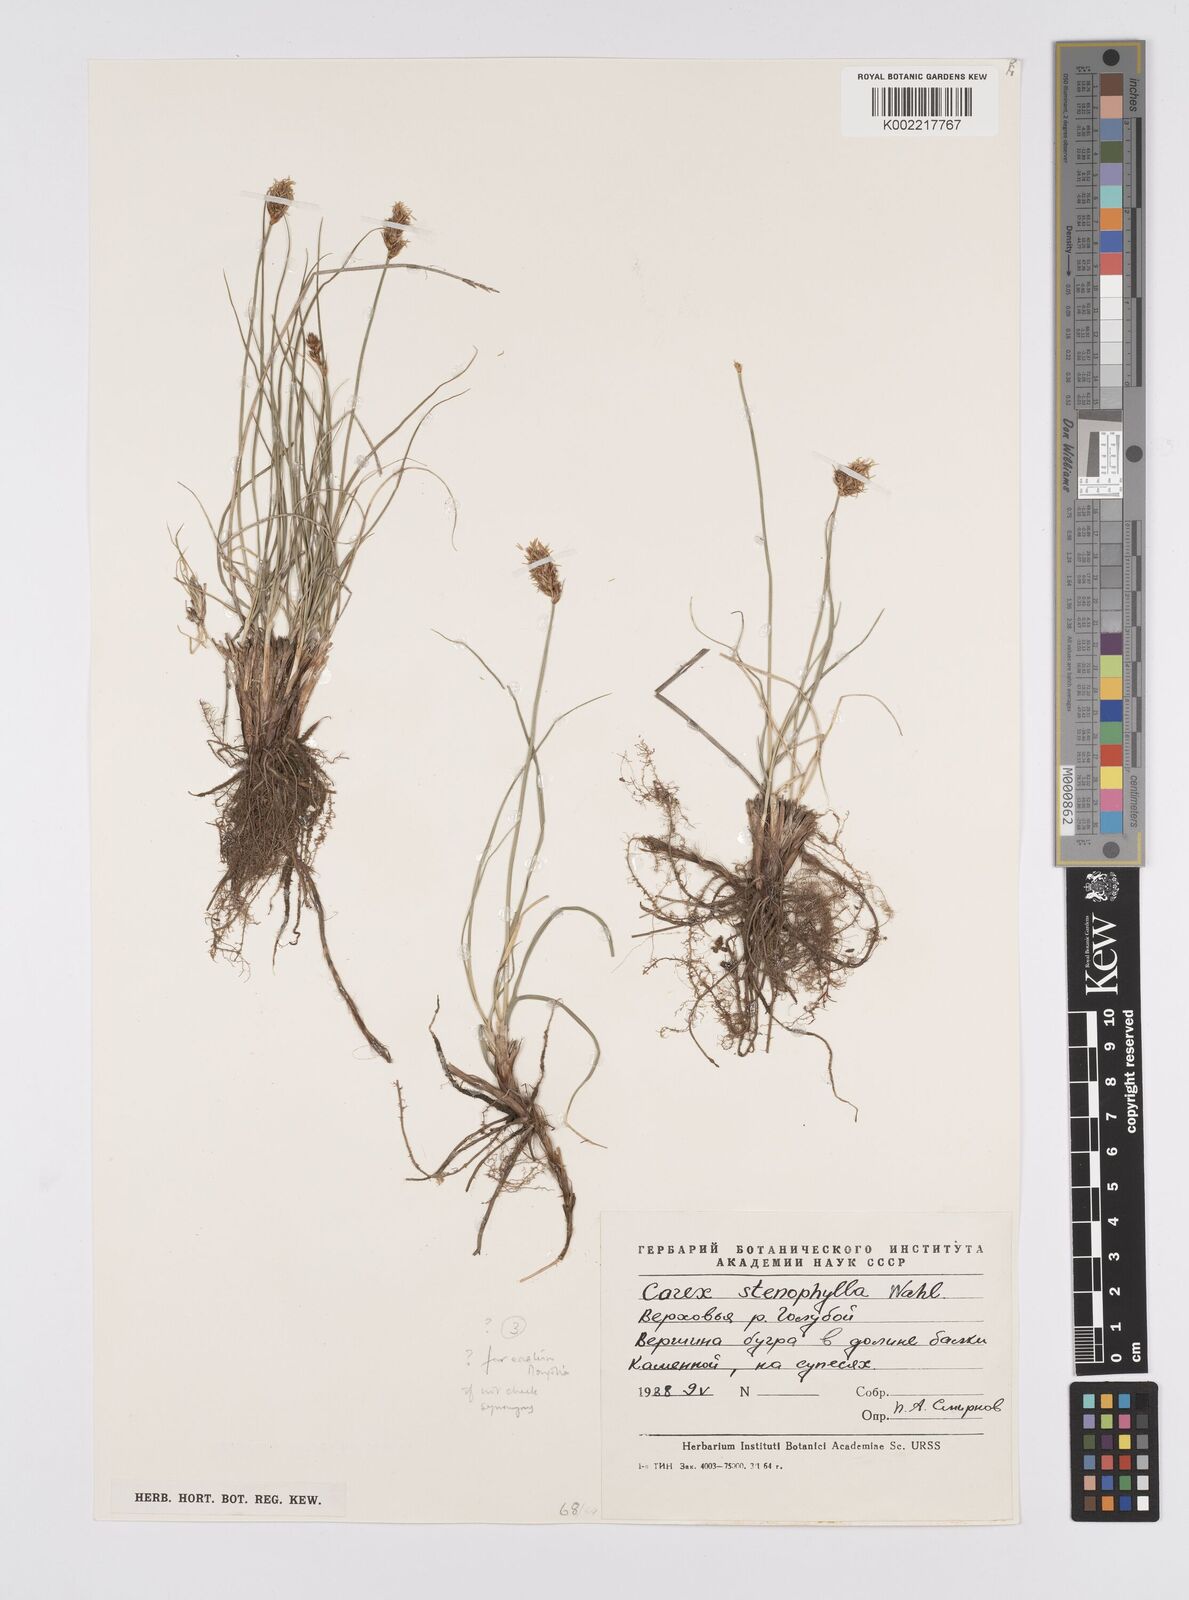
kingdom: Plantae
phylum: Tracheophyta
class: Liliopsida
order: Poales
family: Cyperaceae
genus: Carex
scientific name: Carex stenophylla
